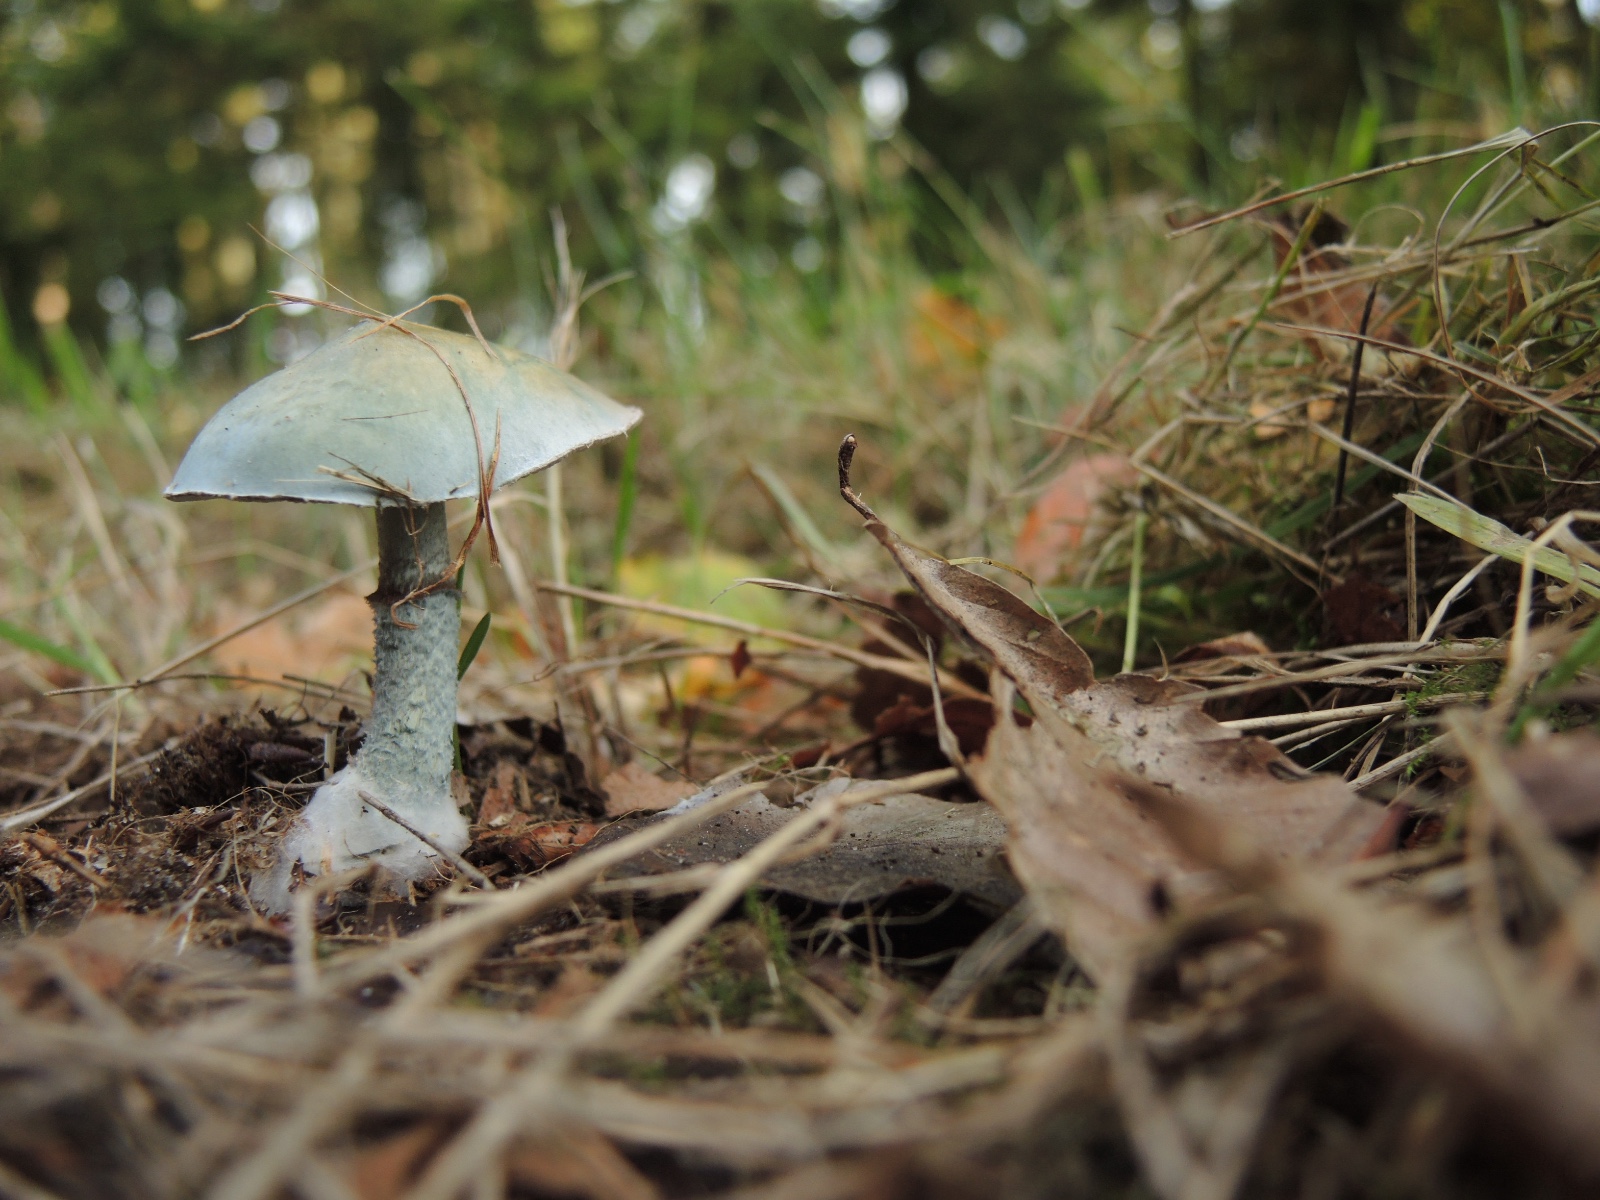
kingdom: Fungi
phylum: Basidiomycota
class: Agaricomycetes
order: Agaricales
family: Strophariaceae
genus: Stropharia
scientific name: Stropharia cyanea
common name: blågrøn bredblad
